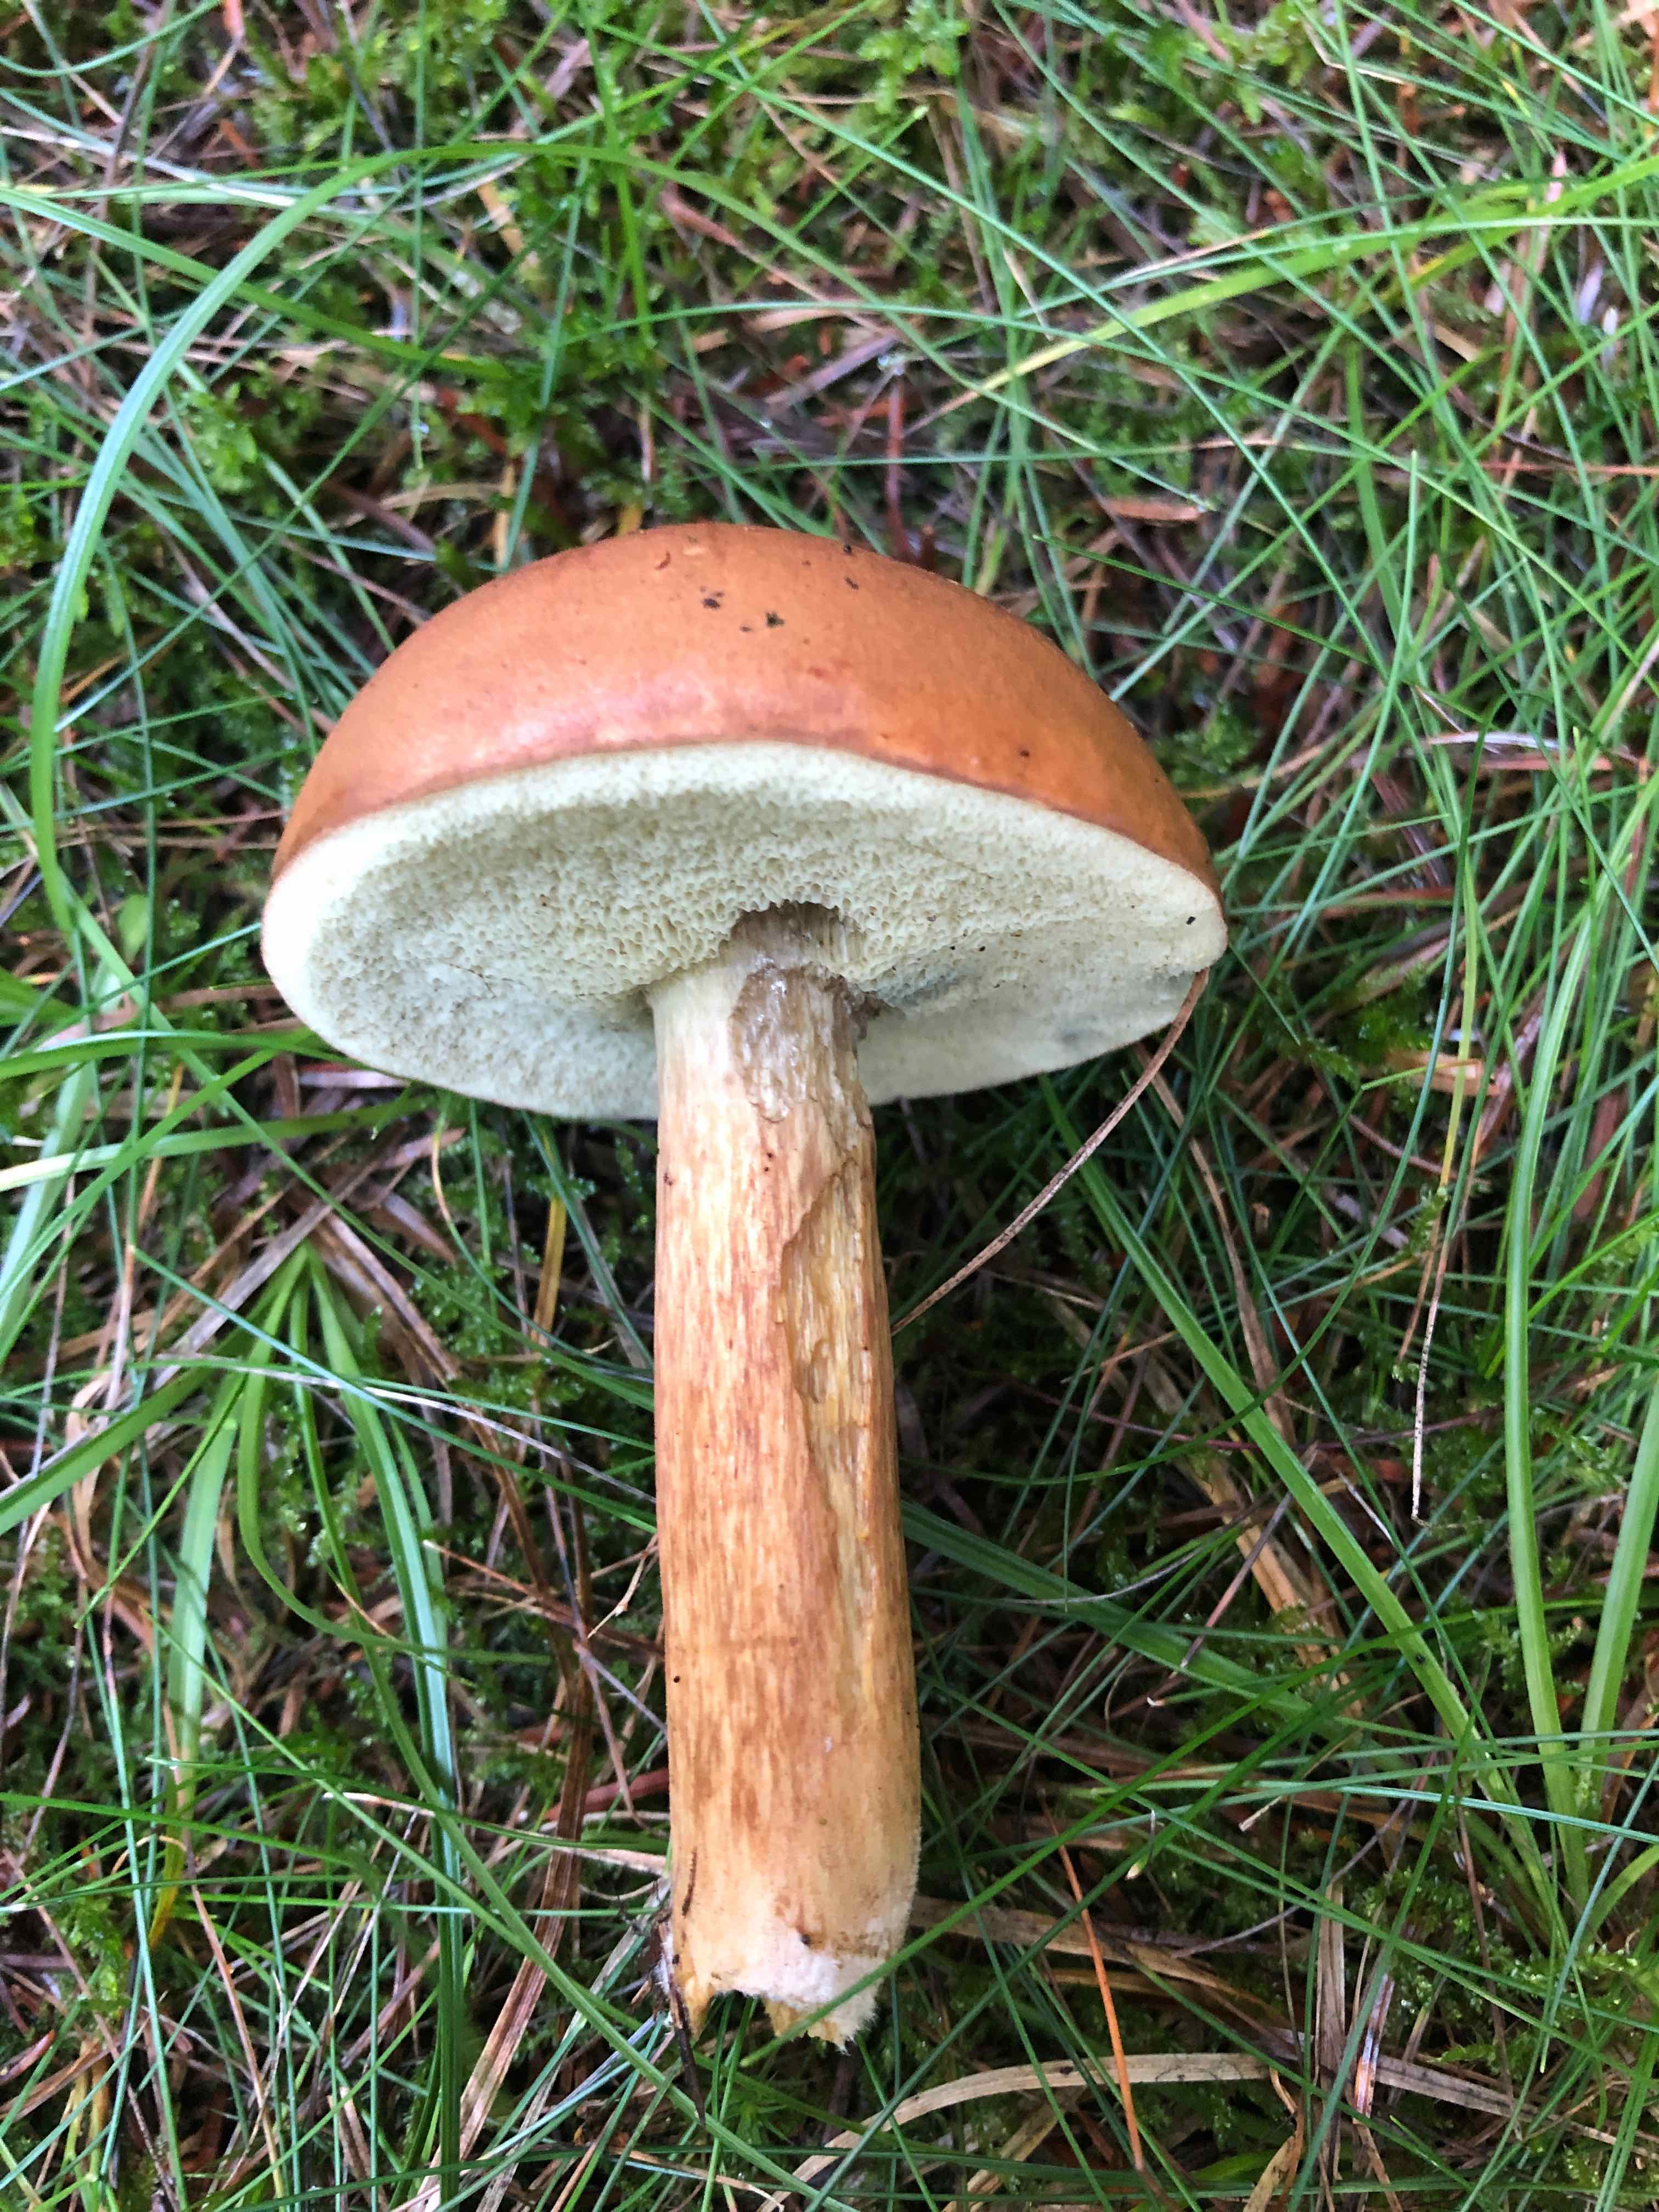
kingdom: Fungi
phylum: Basidiomycota
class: Agaricomycetes
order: Boletales
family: Boletaceae
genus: Imleria
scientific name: Imleria badia
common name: brunstokket rørhat
